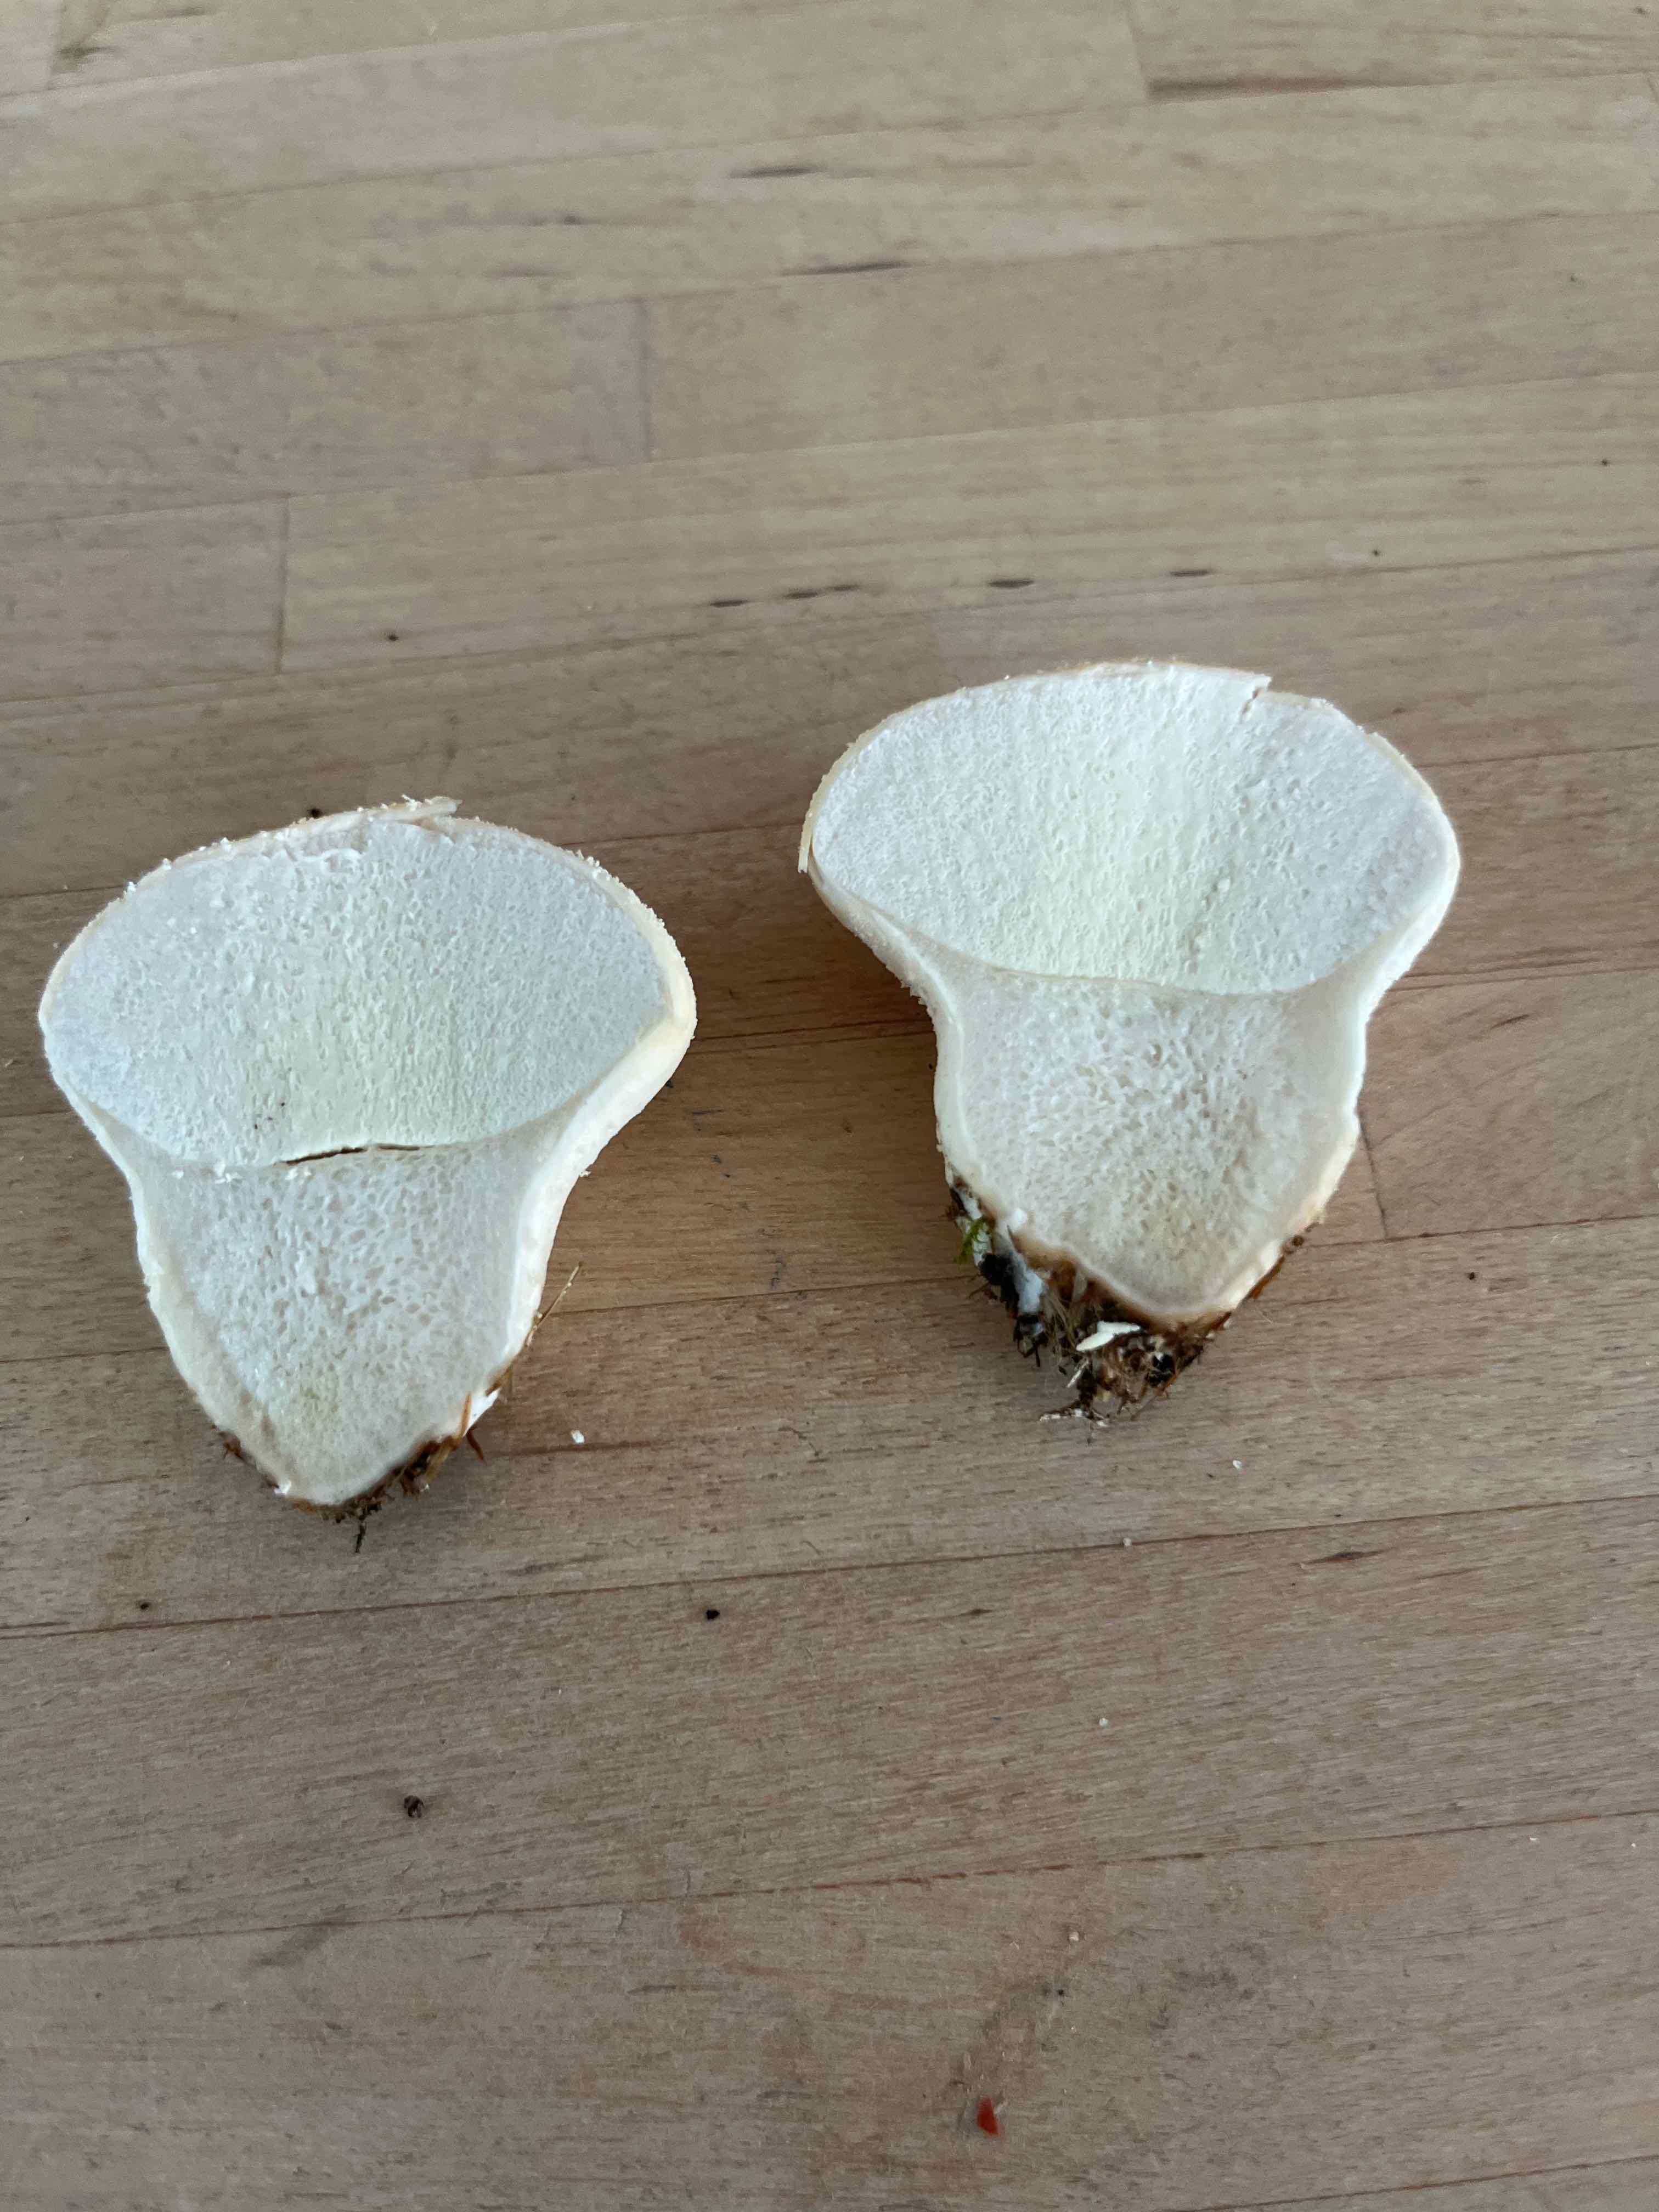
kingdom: Fungi
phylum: Basidiomycota
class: Agaricomycetes
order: Agaricales
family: Lycoperdaceae
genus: Lycoperdon
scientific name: Lycoperdon pratense
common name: flad støvbold
